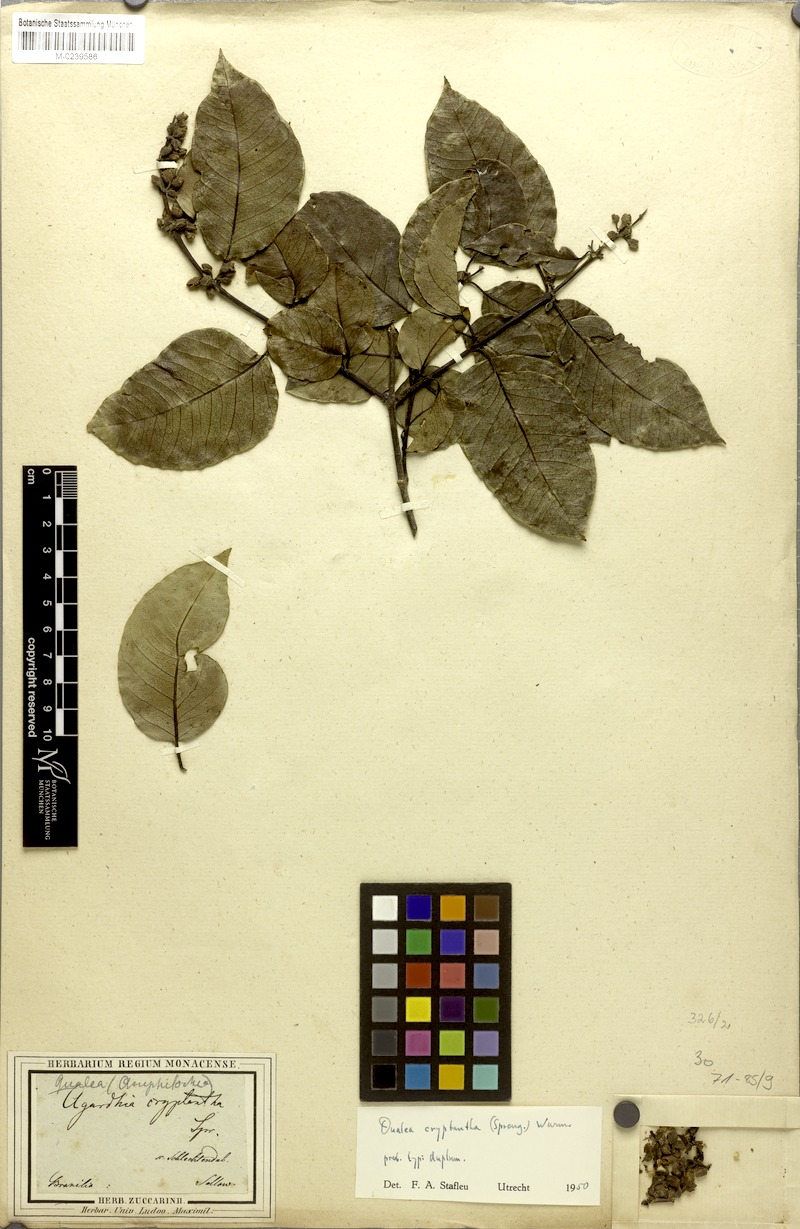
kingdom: Plantae
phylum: Tracheophyta
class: Magnoliopsida
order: Myrtales
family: Vochysiaceae
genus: Qualea
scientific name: Qualea cryptantha
